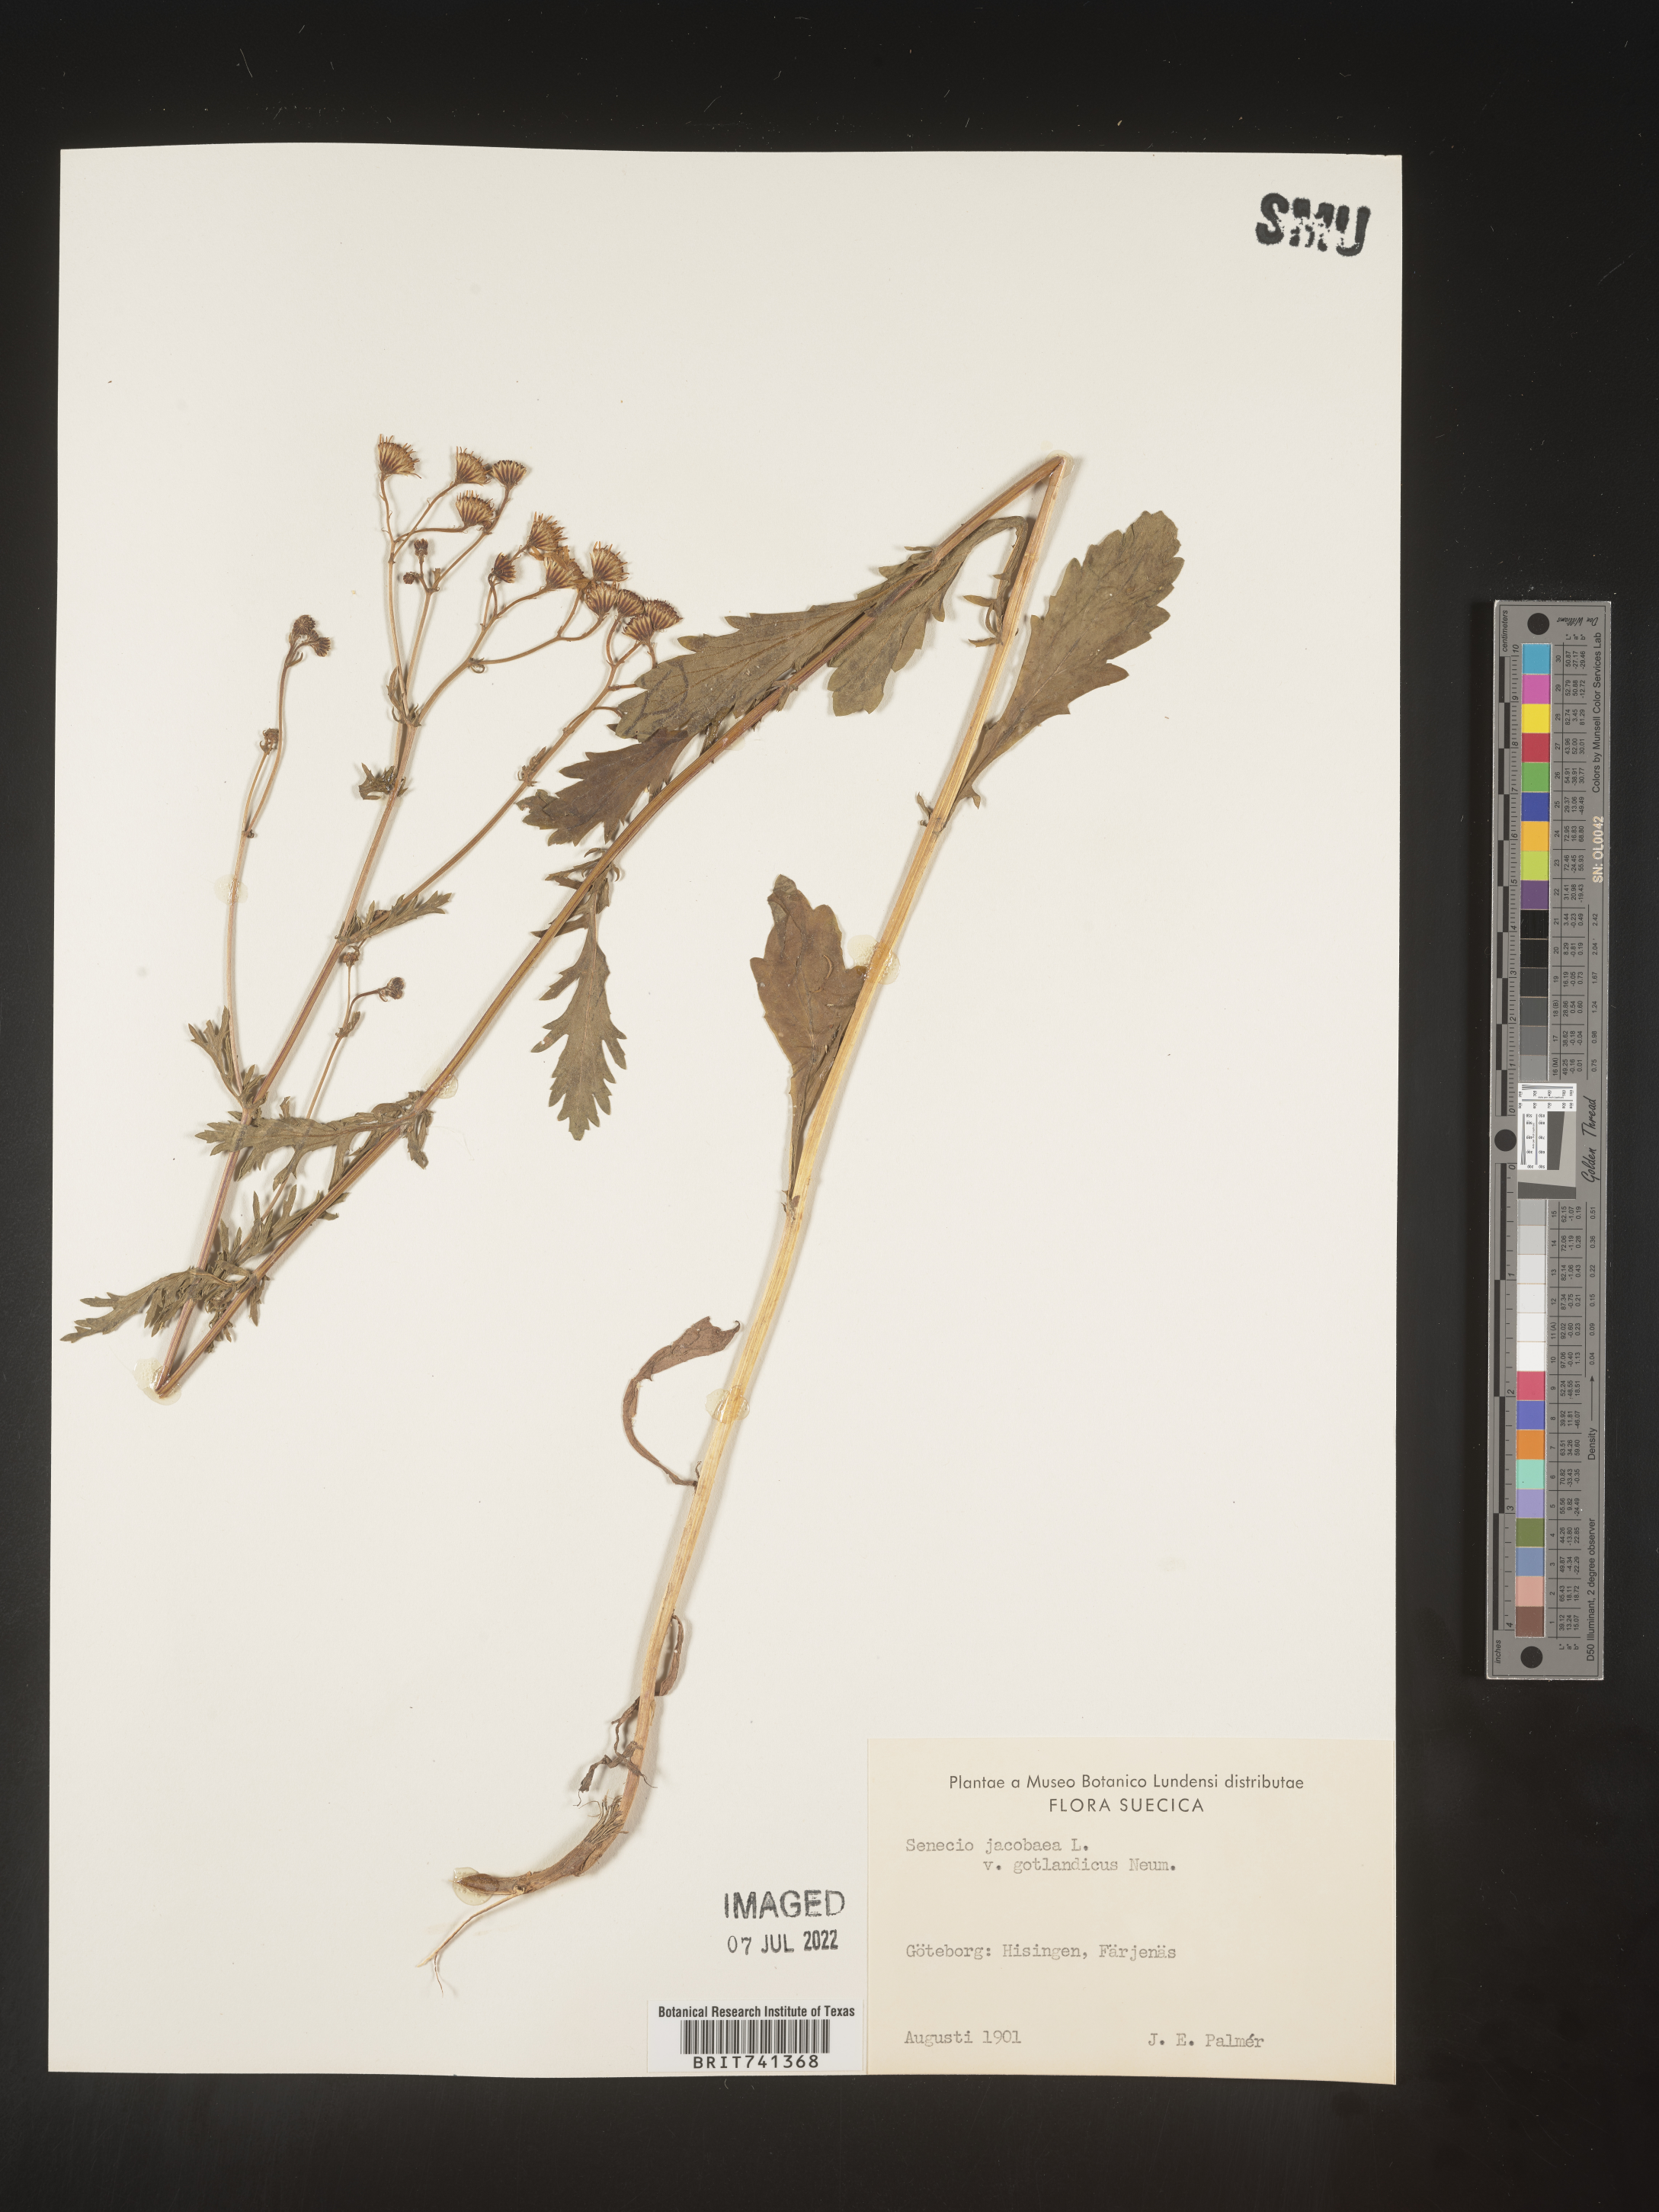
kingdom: Plantae
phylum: Tracheophyta
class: Magnoliopsida
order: Asterales
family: Asteraceae
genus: Senecio
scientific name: Senecio
